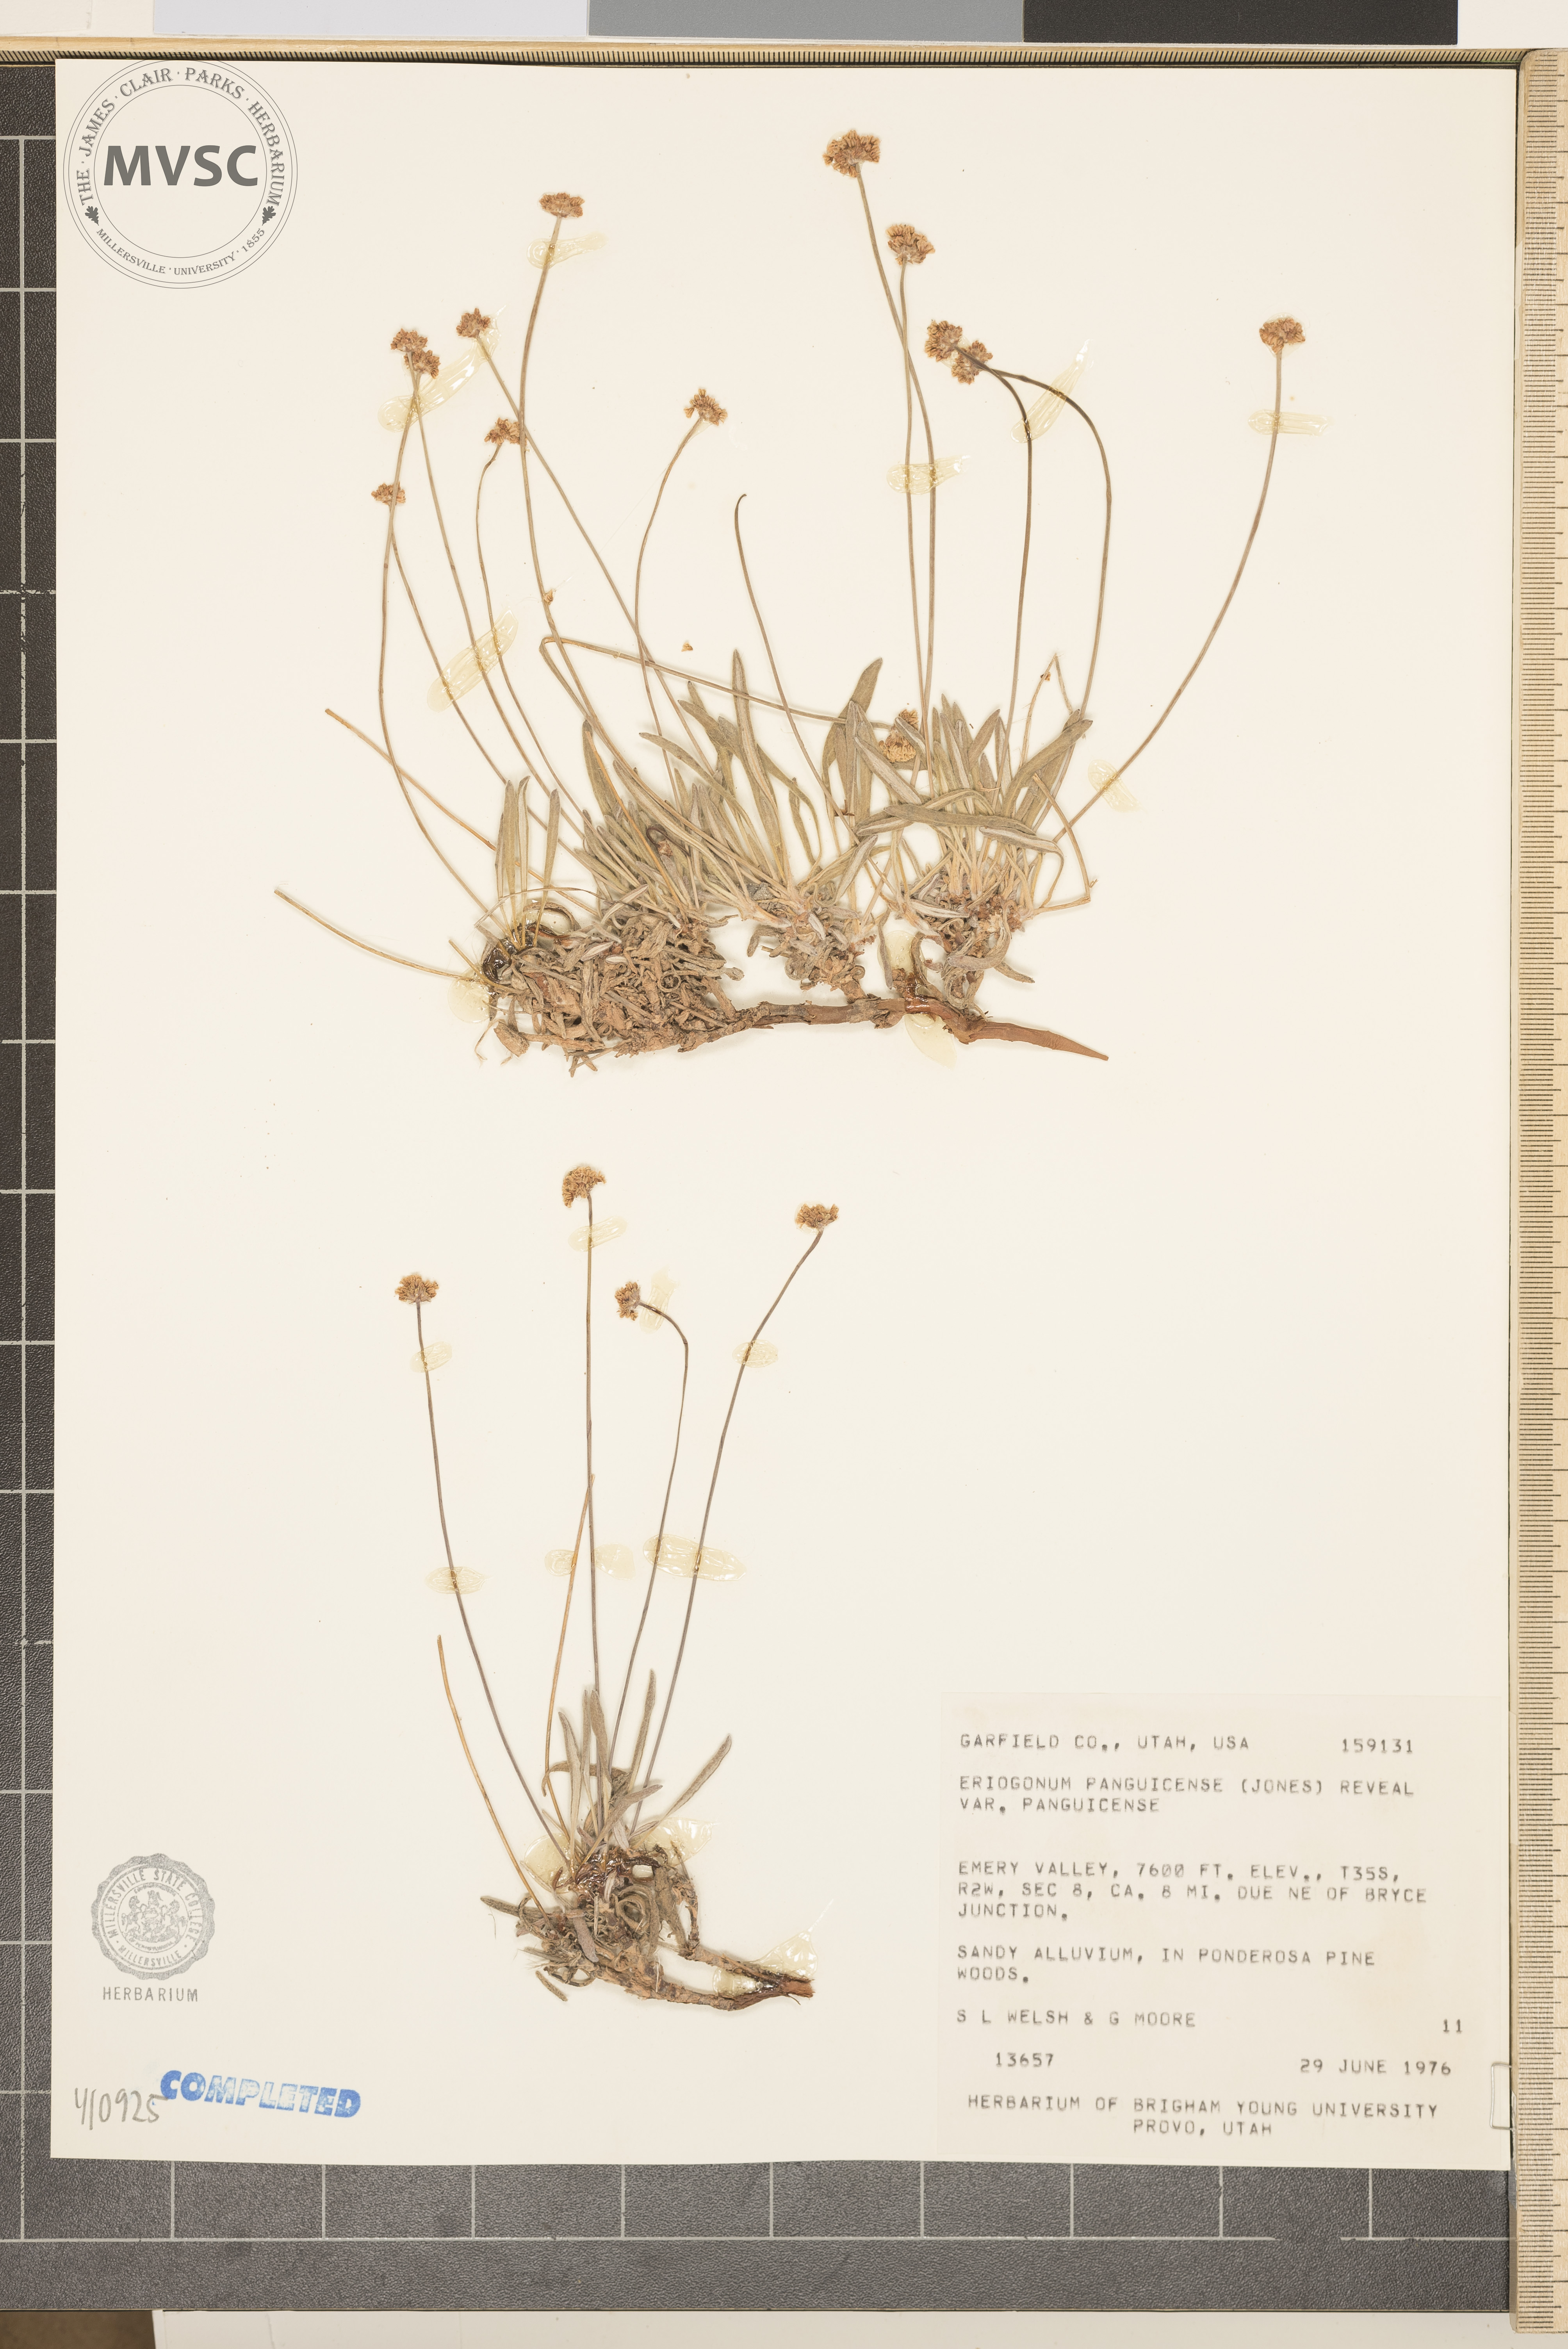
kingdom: Plantae
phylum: Tracheophyta
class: Magnoliopsida
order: Caryophyllales
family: Polygonaceae
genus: Eriogonum
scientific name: Eriogonum panguicense
